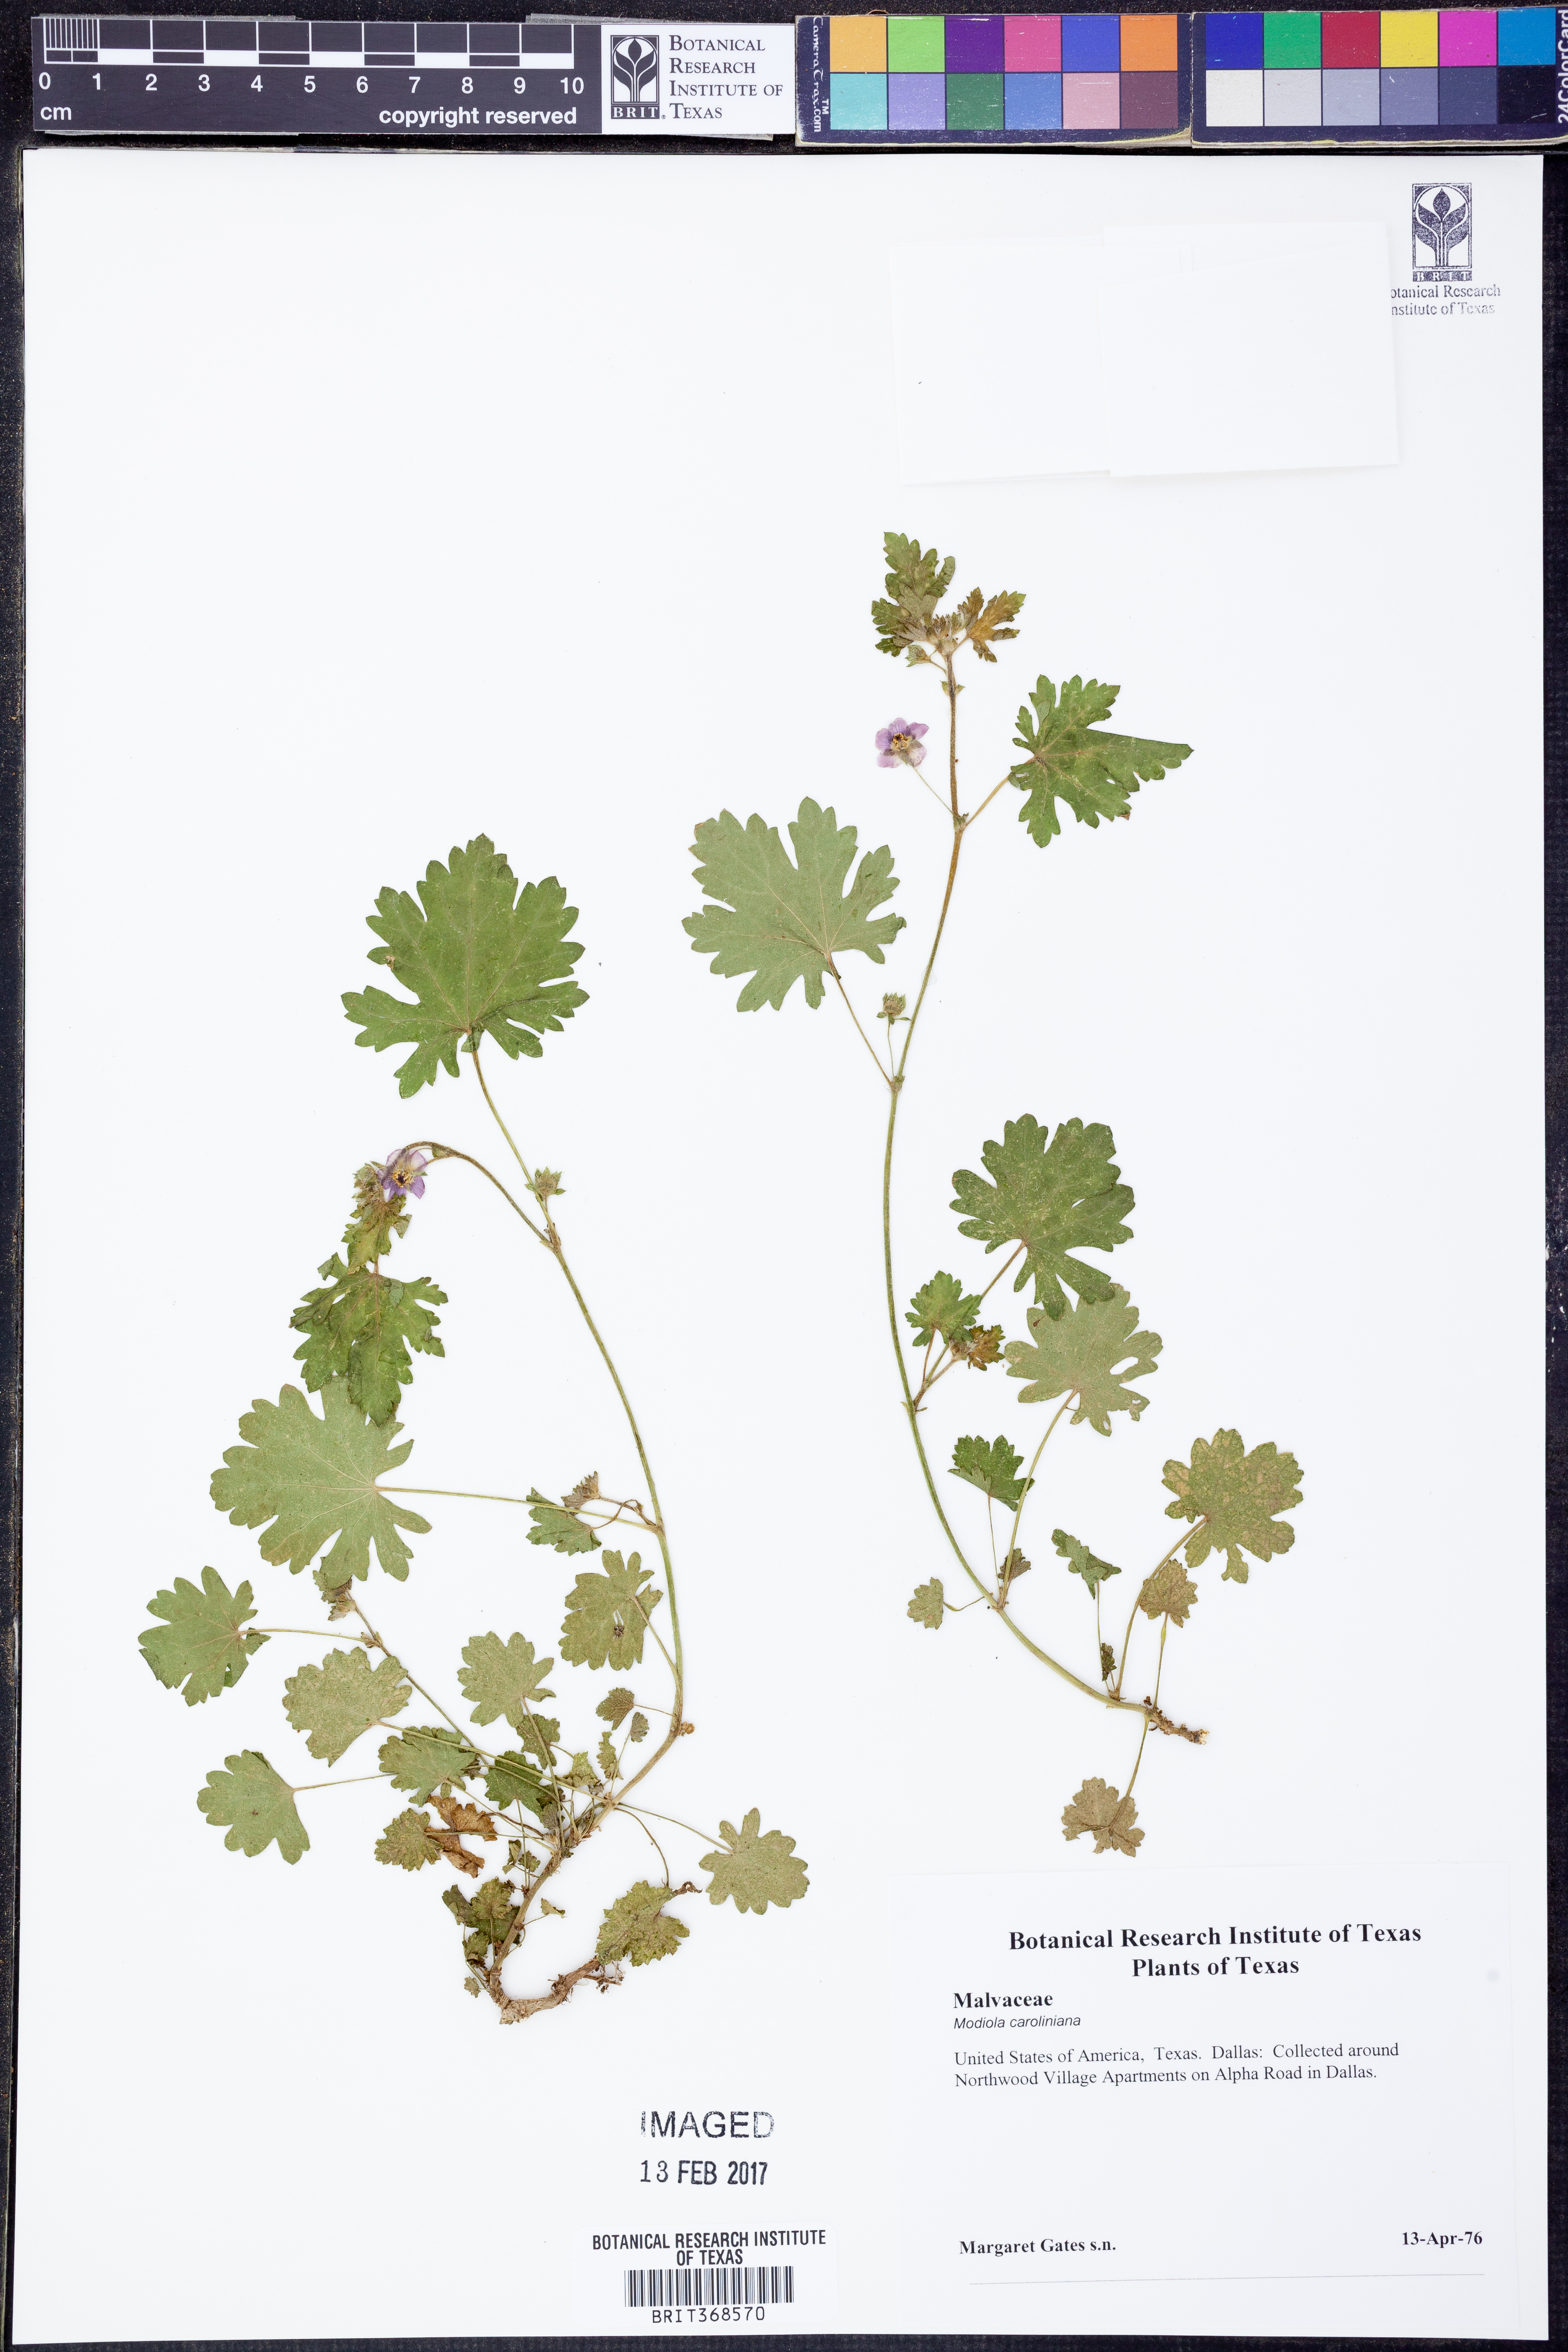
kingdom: Plantae
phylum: Tracheophyta
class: Magnoliopsida
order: Malvales
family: Malvaceae
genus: Modiola
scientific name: Modiola caroliniana
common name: Carolina bristlemallow
